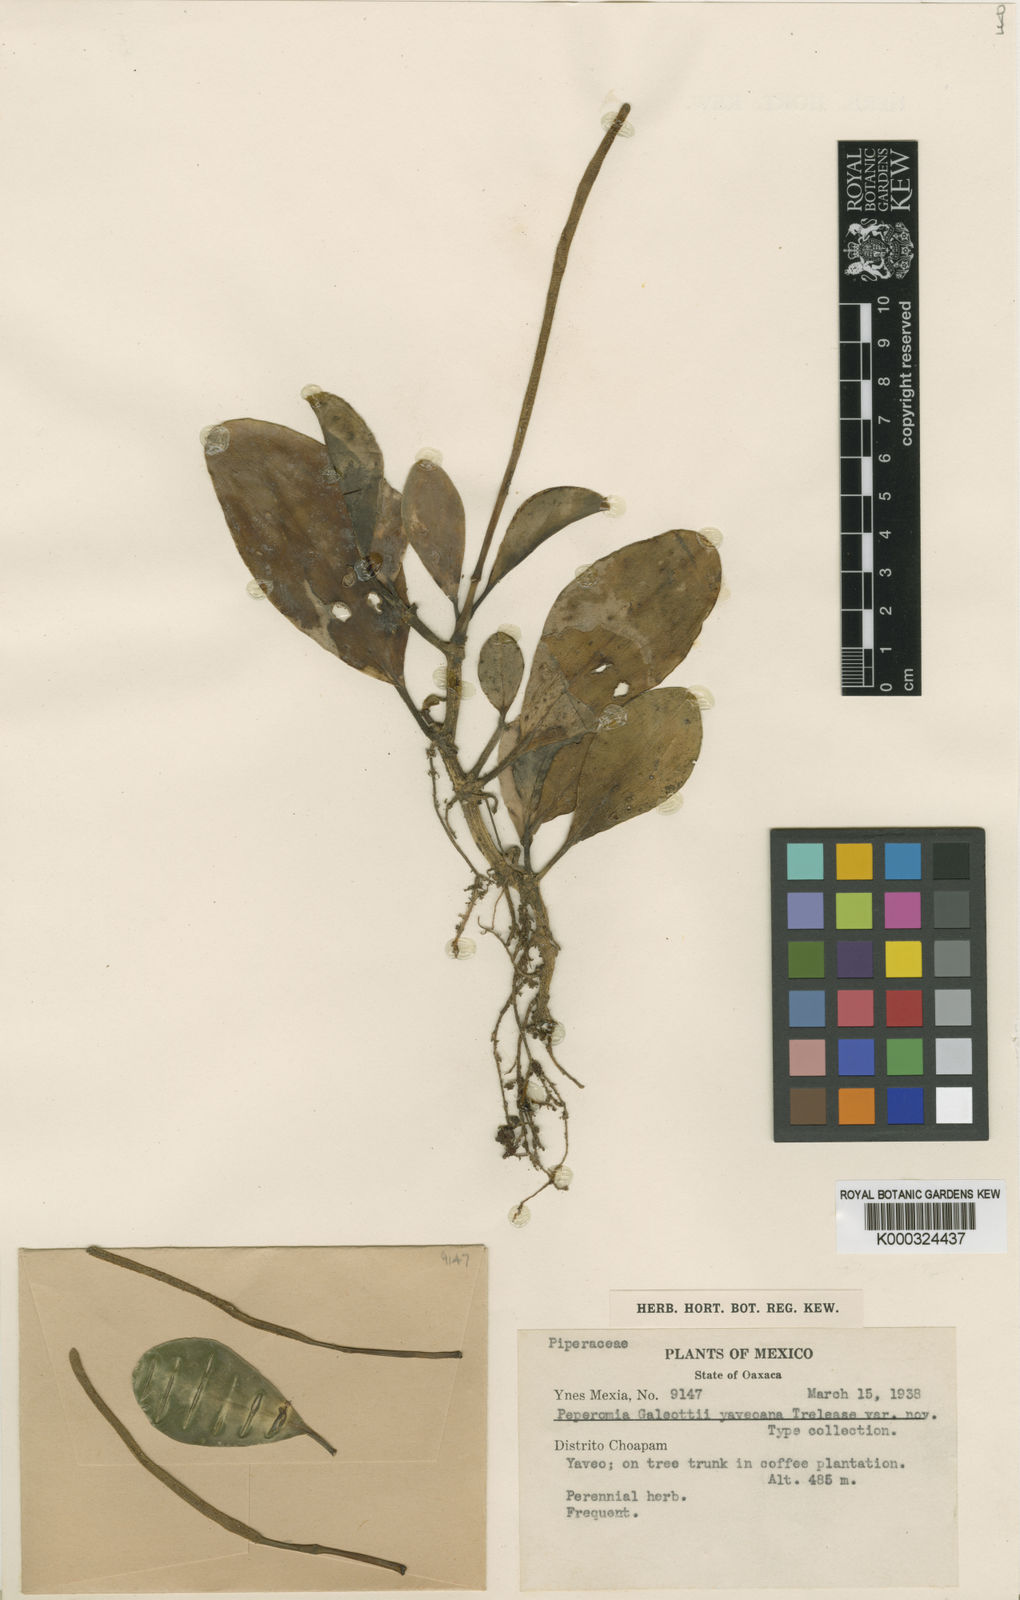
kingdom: Plantae
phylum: Tracheophyta
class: Magnoliopsida
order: Piperales
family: Piperaceae
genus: Peperomia
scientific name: Peperomia obtusifolia
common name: Baby rubberplant
